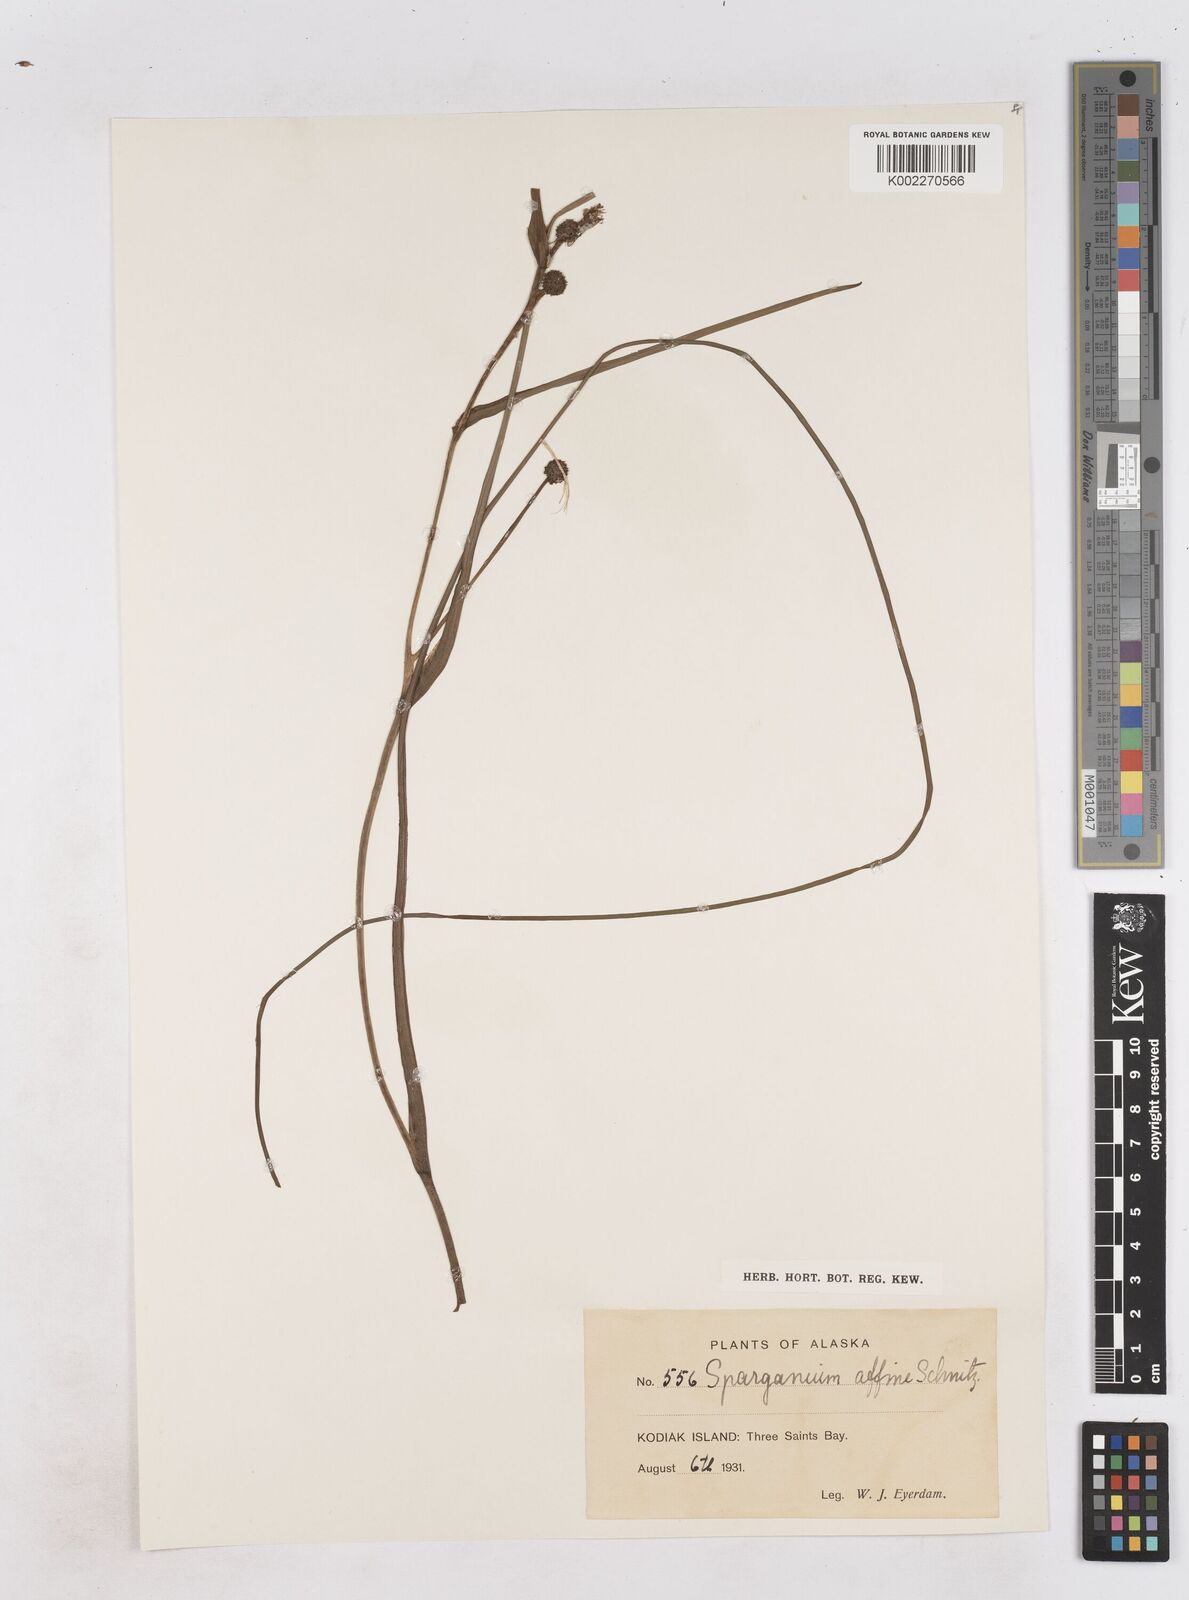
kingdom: Plantae
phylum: Tracheophyta
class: Liliopsida
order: Poales
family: Typhaceae
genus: Sparganium
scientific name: Sparganium angustifolium
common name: Floating bur-reed
